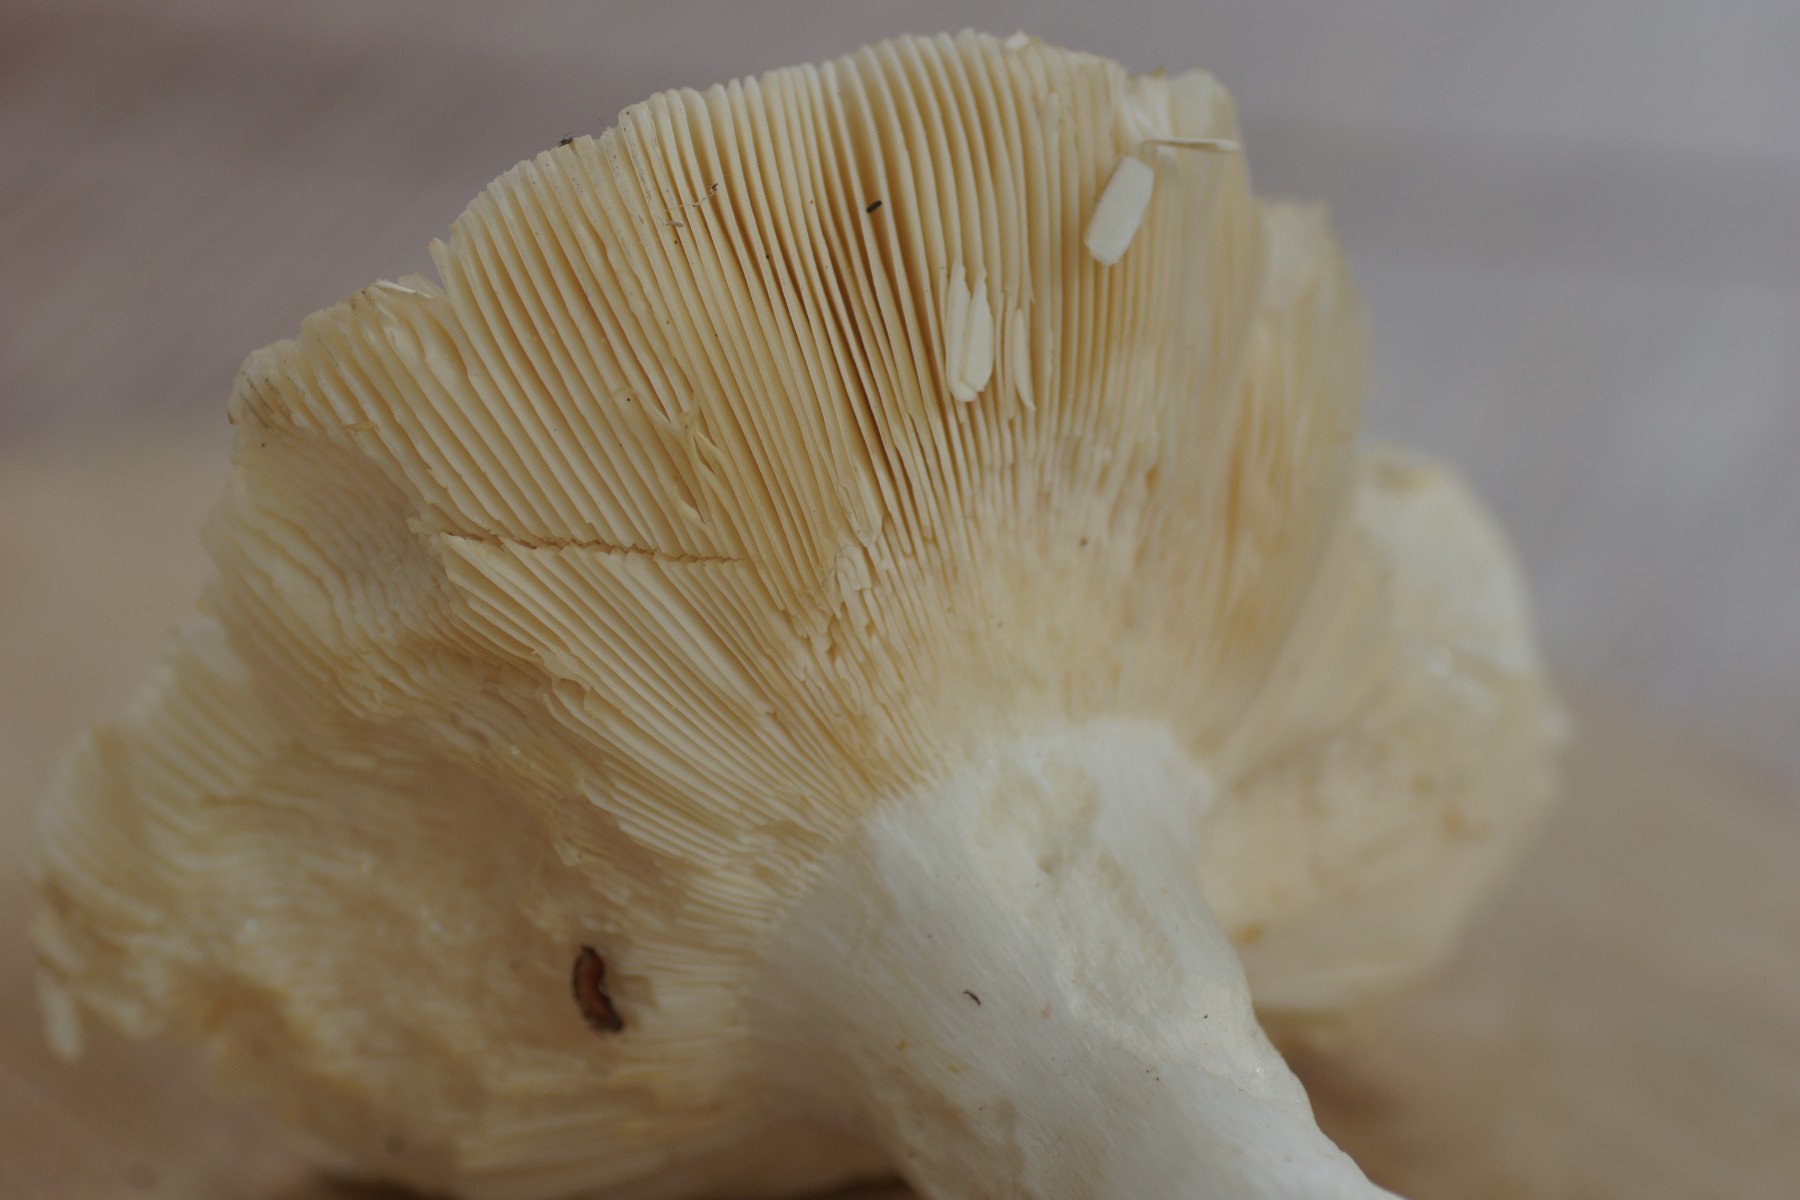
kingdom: Fungi
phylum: Basidiomycota
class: Agaricomycetes
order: Russulales
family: Russulaceae
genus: Russula
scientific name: Russula
